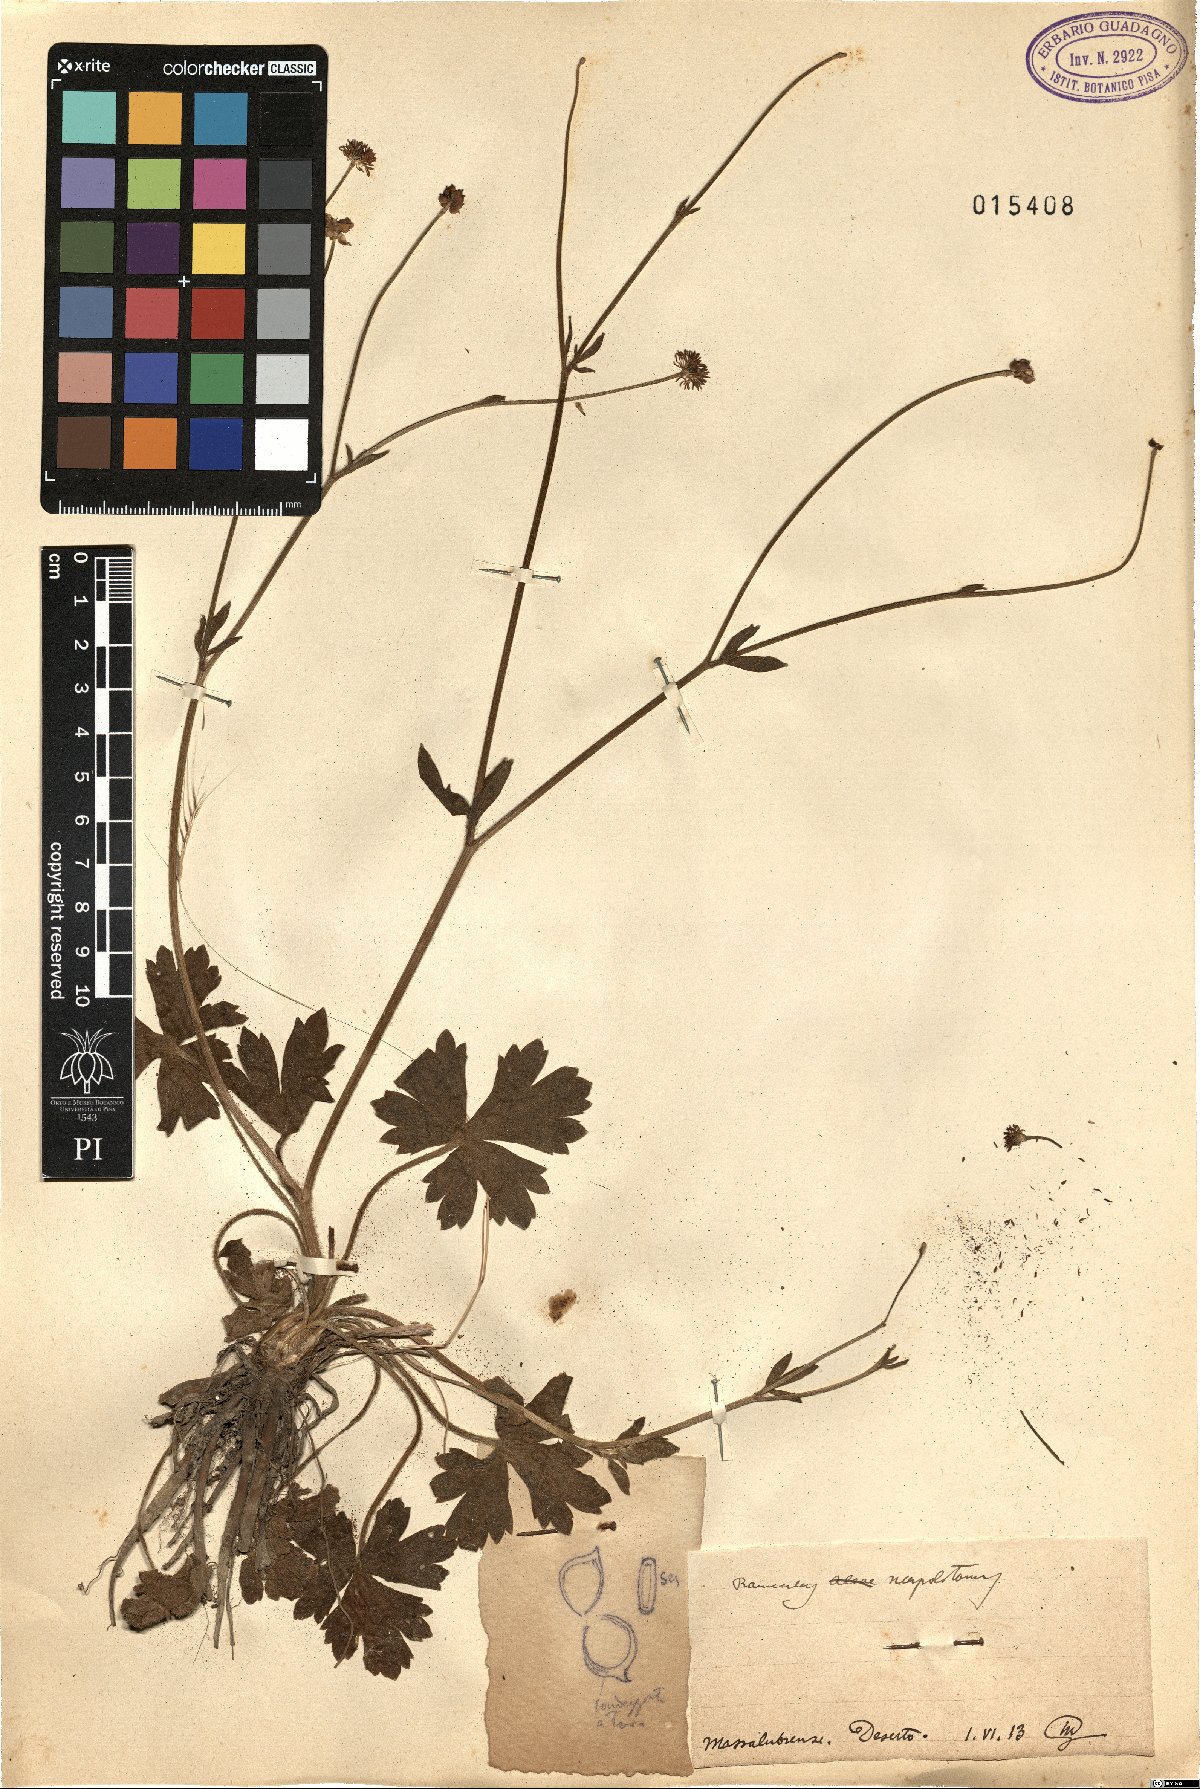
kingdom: Plantae
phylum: Tracheophyta
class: Magnoliopsida
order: Ranunculales
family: Ranunculaceae
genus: Ranunculus
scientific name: Ranunculus neapolitanus
